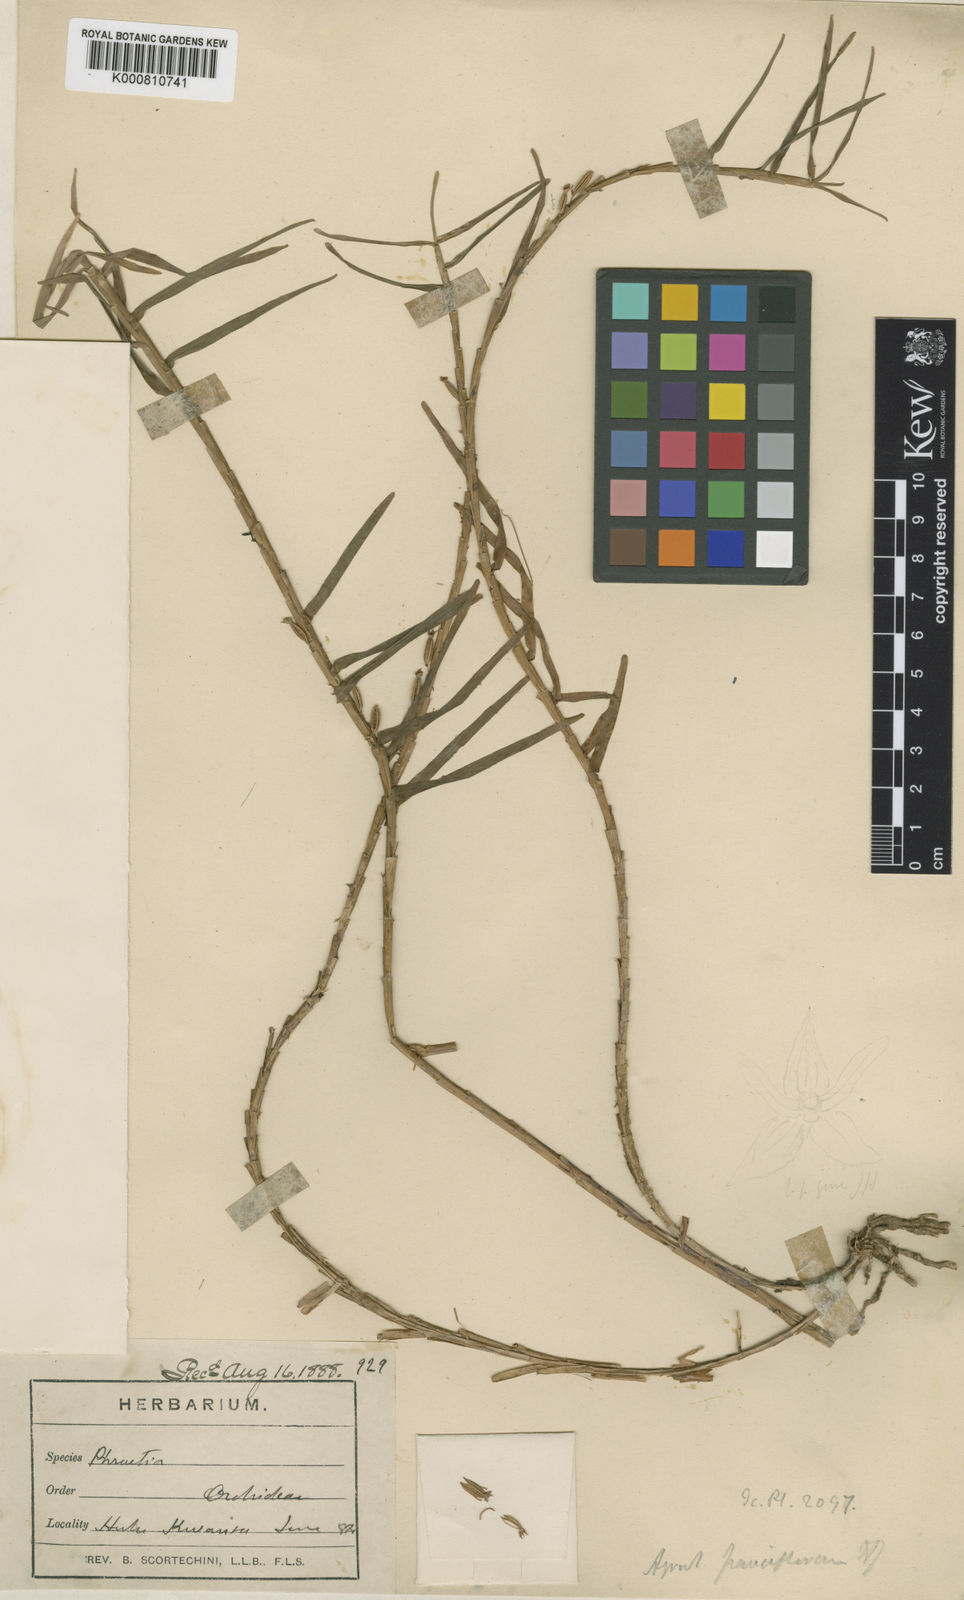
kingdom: Plantae
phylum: Tracheophyta
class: Liliopsida
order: Asparagales
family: Orchidaceae
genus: Poaephyllum
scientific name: Poaephyllum pauciflorum
